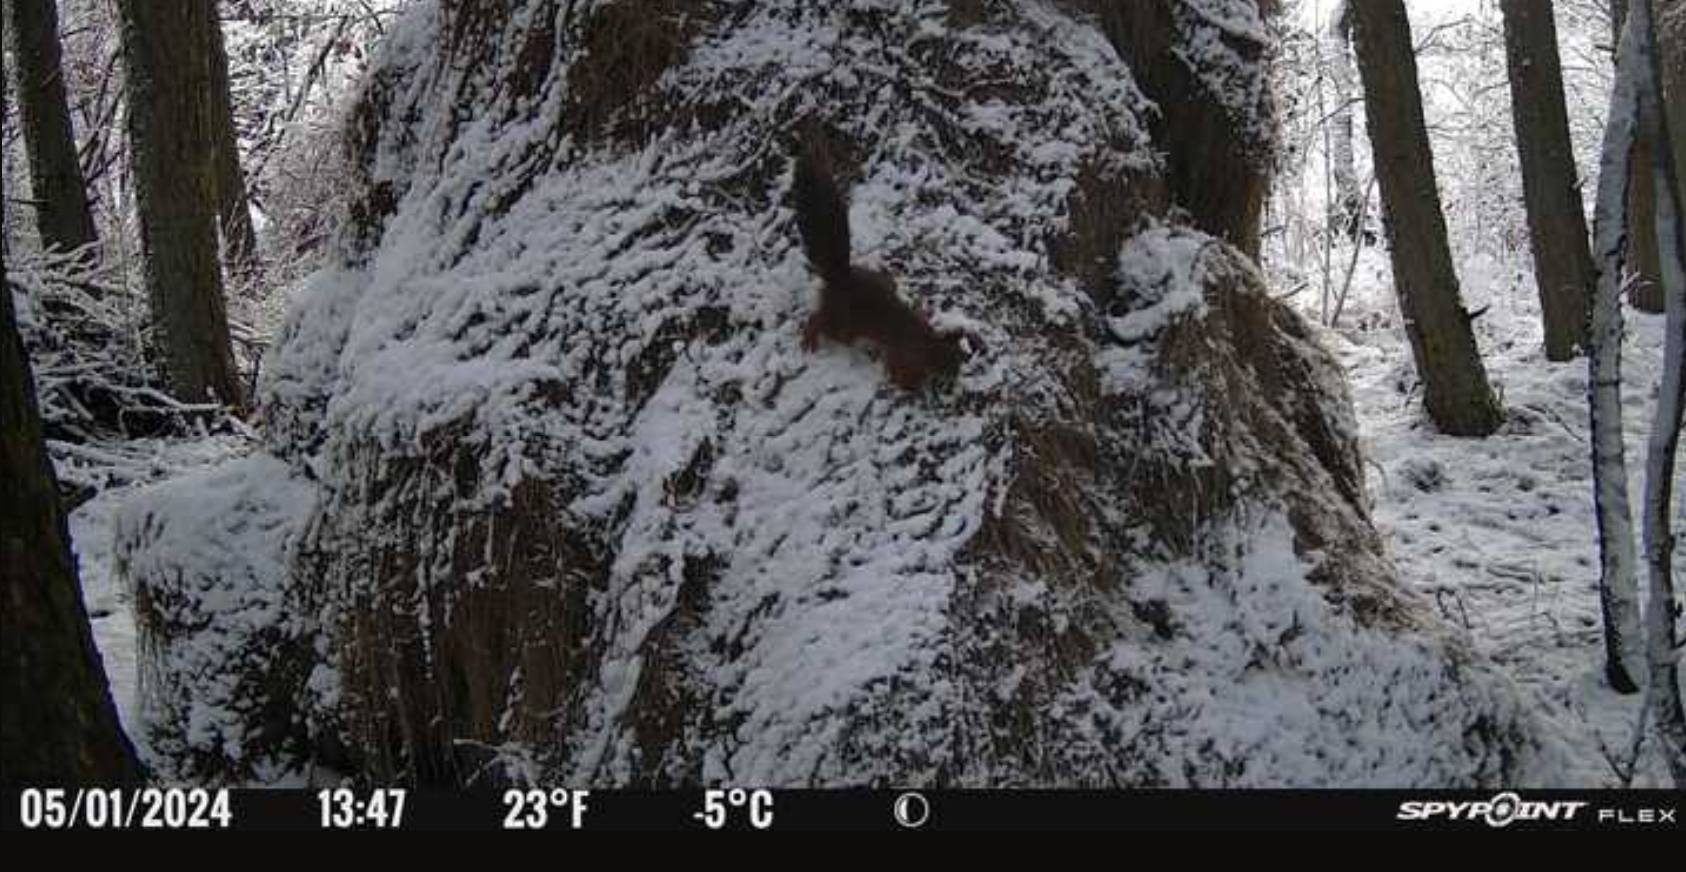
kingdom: Animalia
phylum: Chordata
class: Mammalia
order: Rodentia
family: Sciuridae
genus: Sciurus
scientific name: Sciurus vulgaris
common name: Egern
